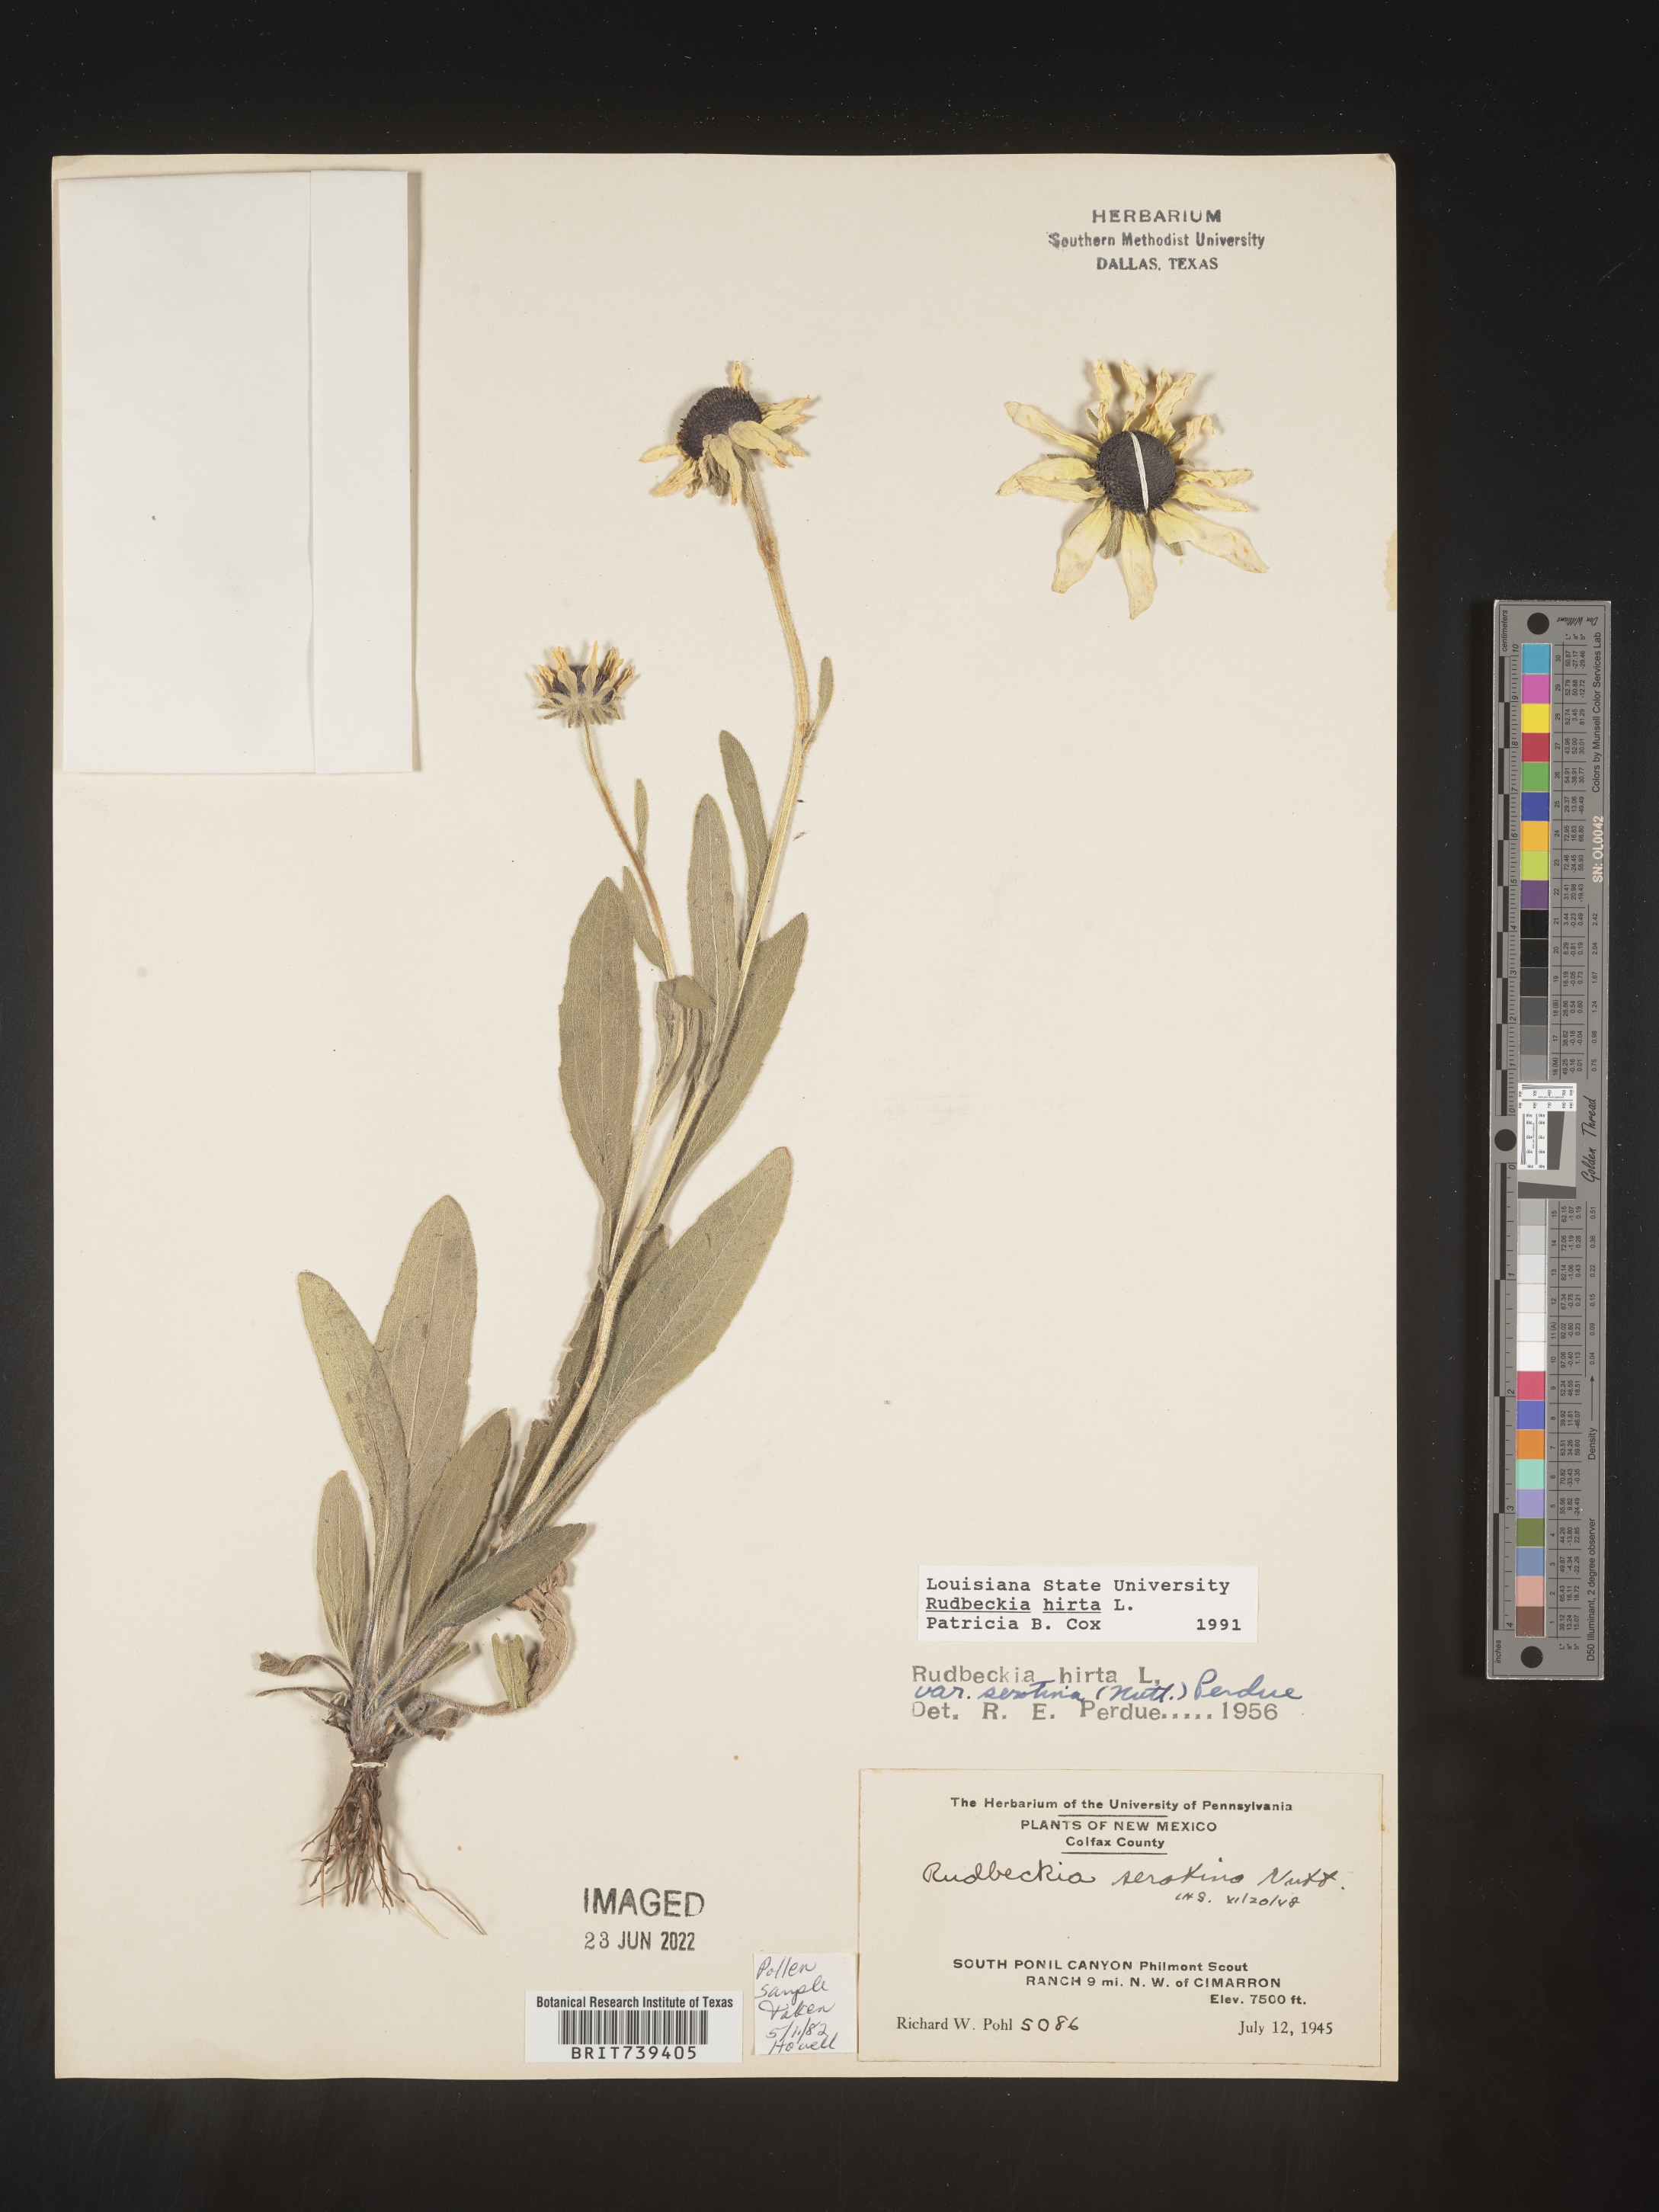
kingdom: Plantae
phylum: Tracheophyta
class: Magnoliopsida
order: Asterales
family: Asteraceae
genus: Rudbeckia
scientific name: Rudbeckia hirta
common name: Black-eyed-susan
